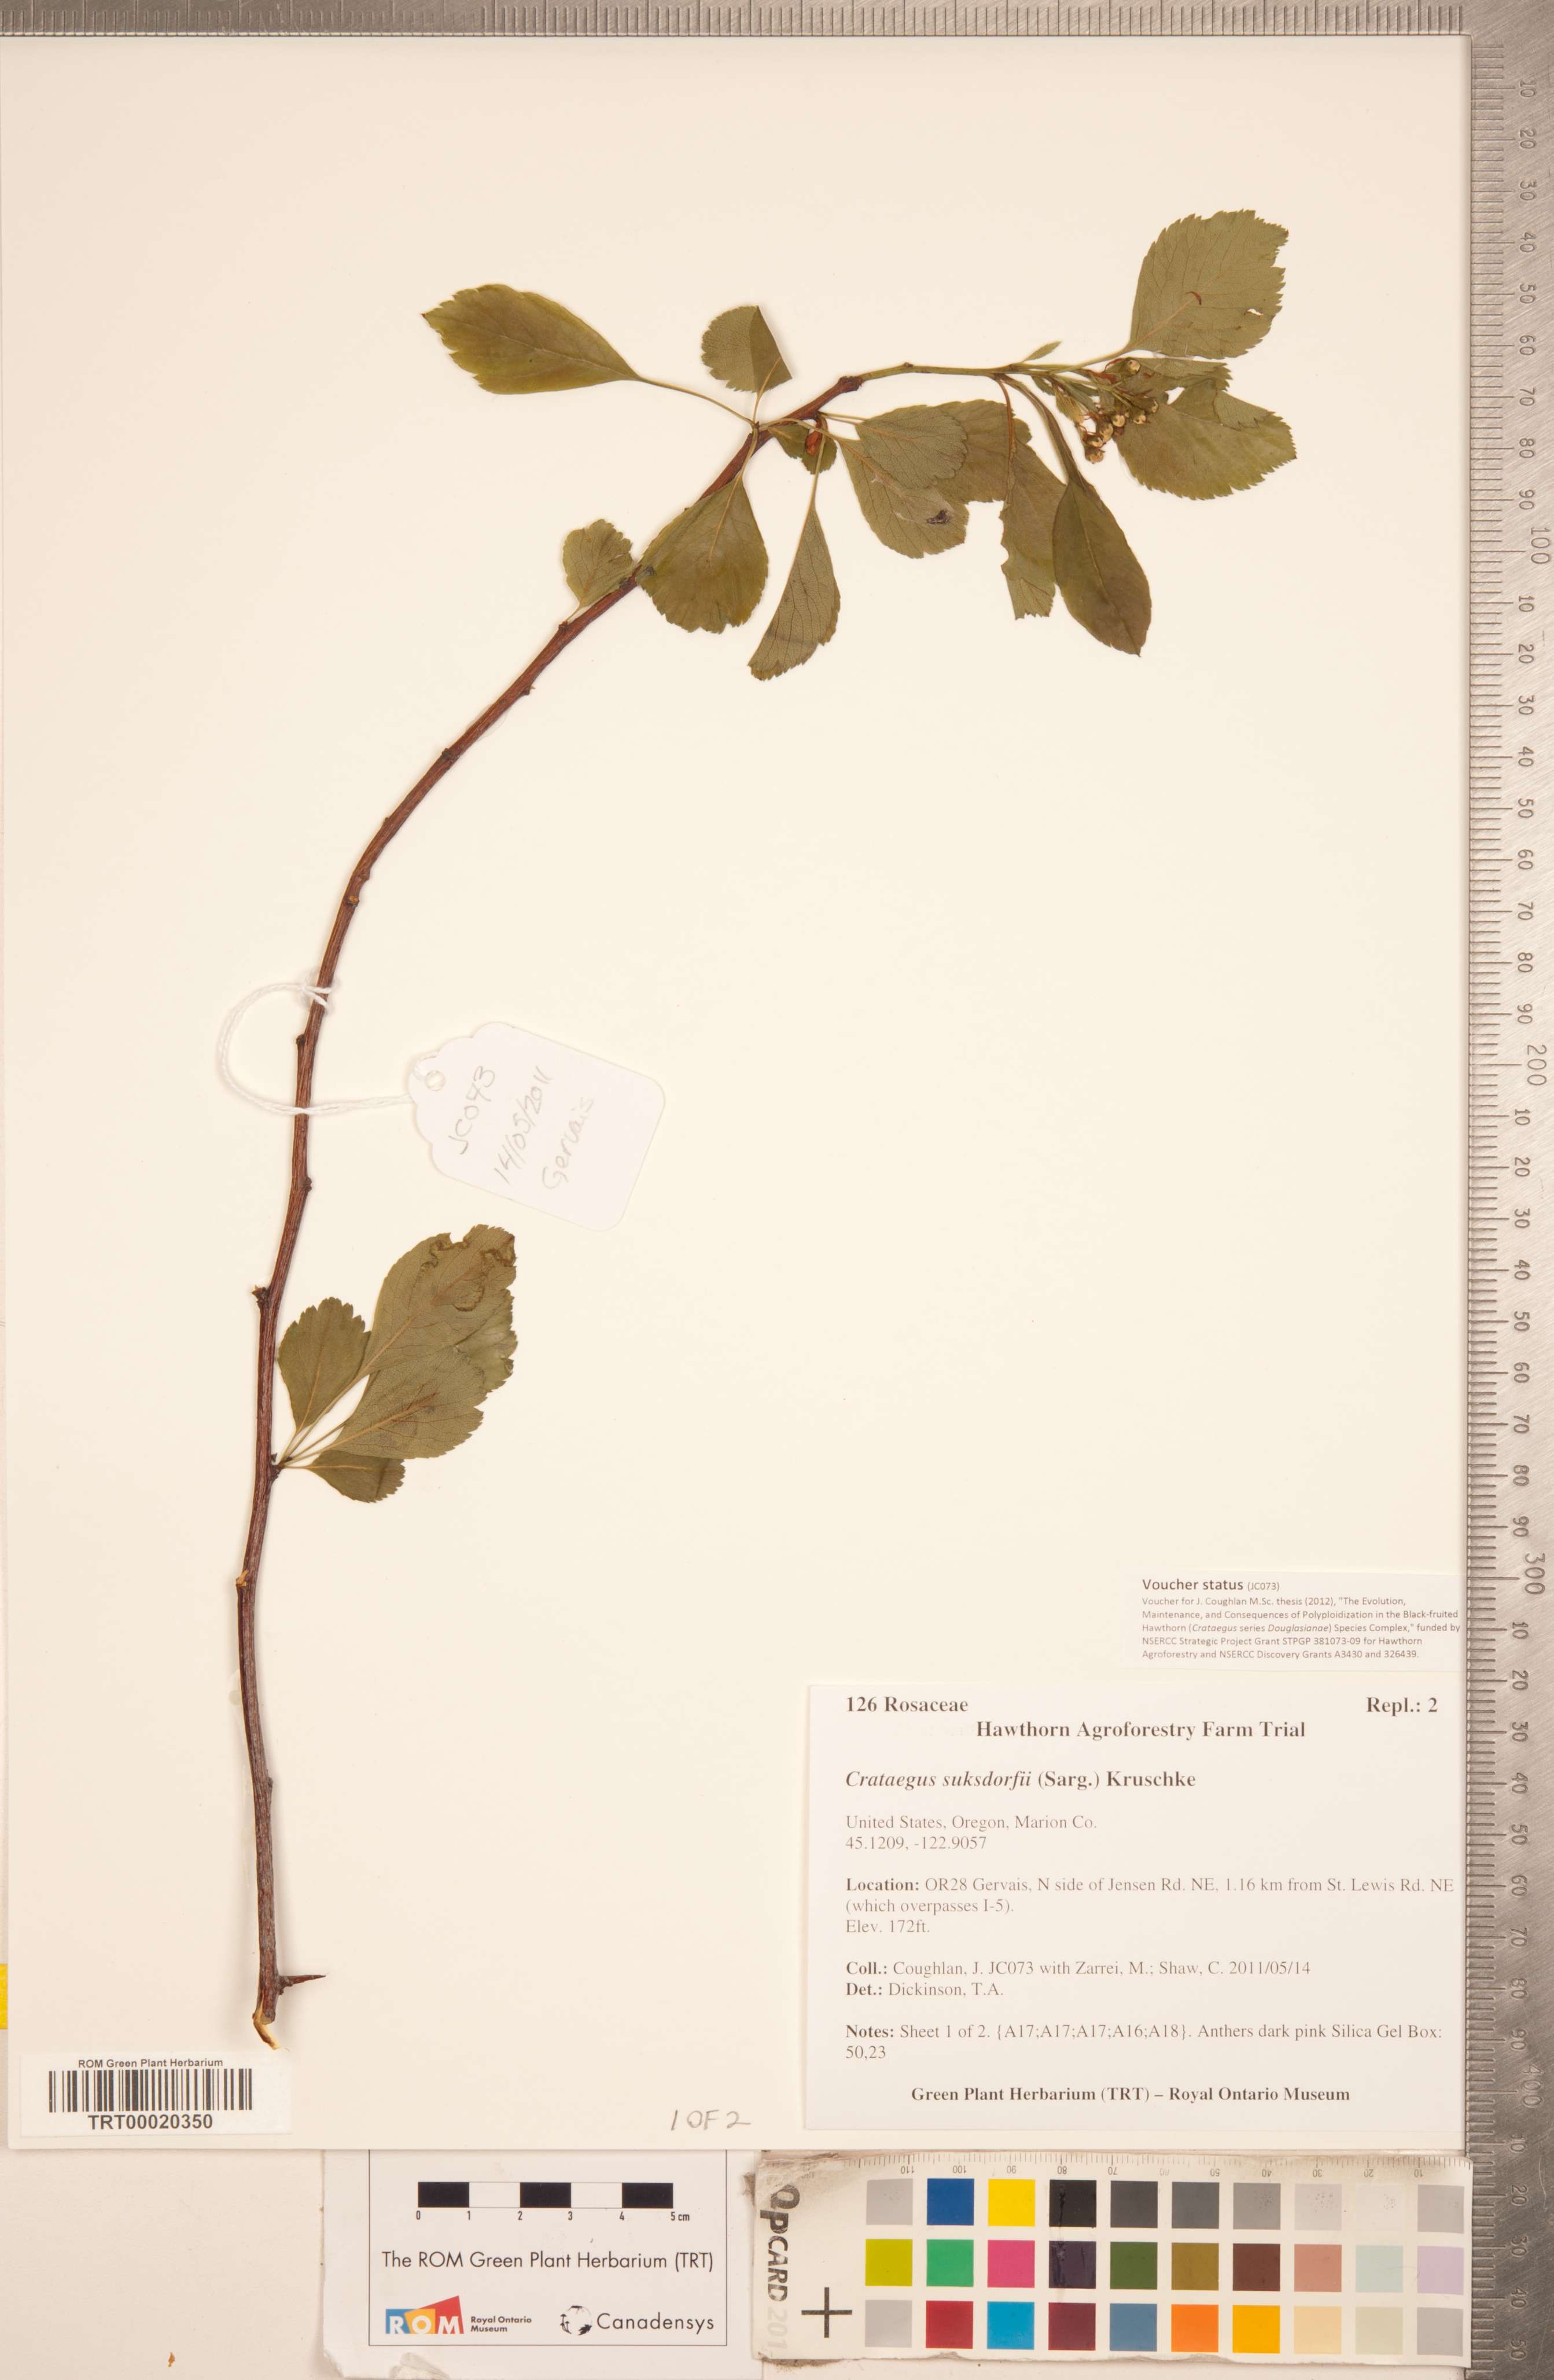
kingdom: Plantae
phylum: Tracheophyta
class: Magnoliopsida
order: Rosales
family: Rosaceae
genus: Crataegus
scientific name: Crataegus gaylussacia
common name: Huckleberry hawthorn
